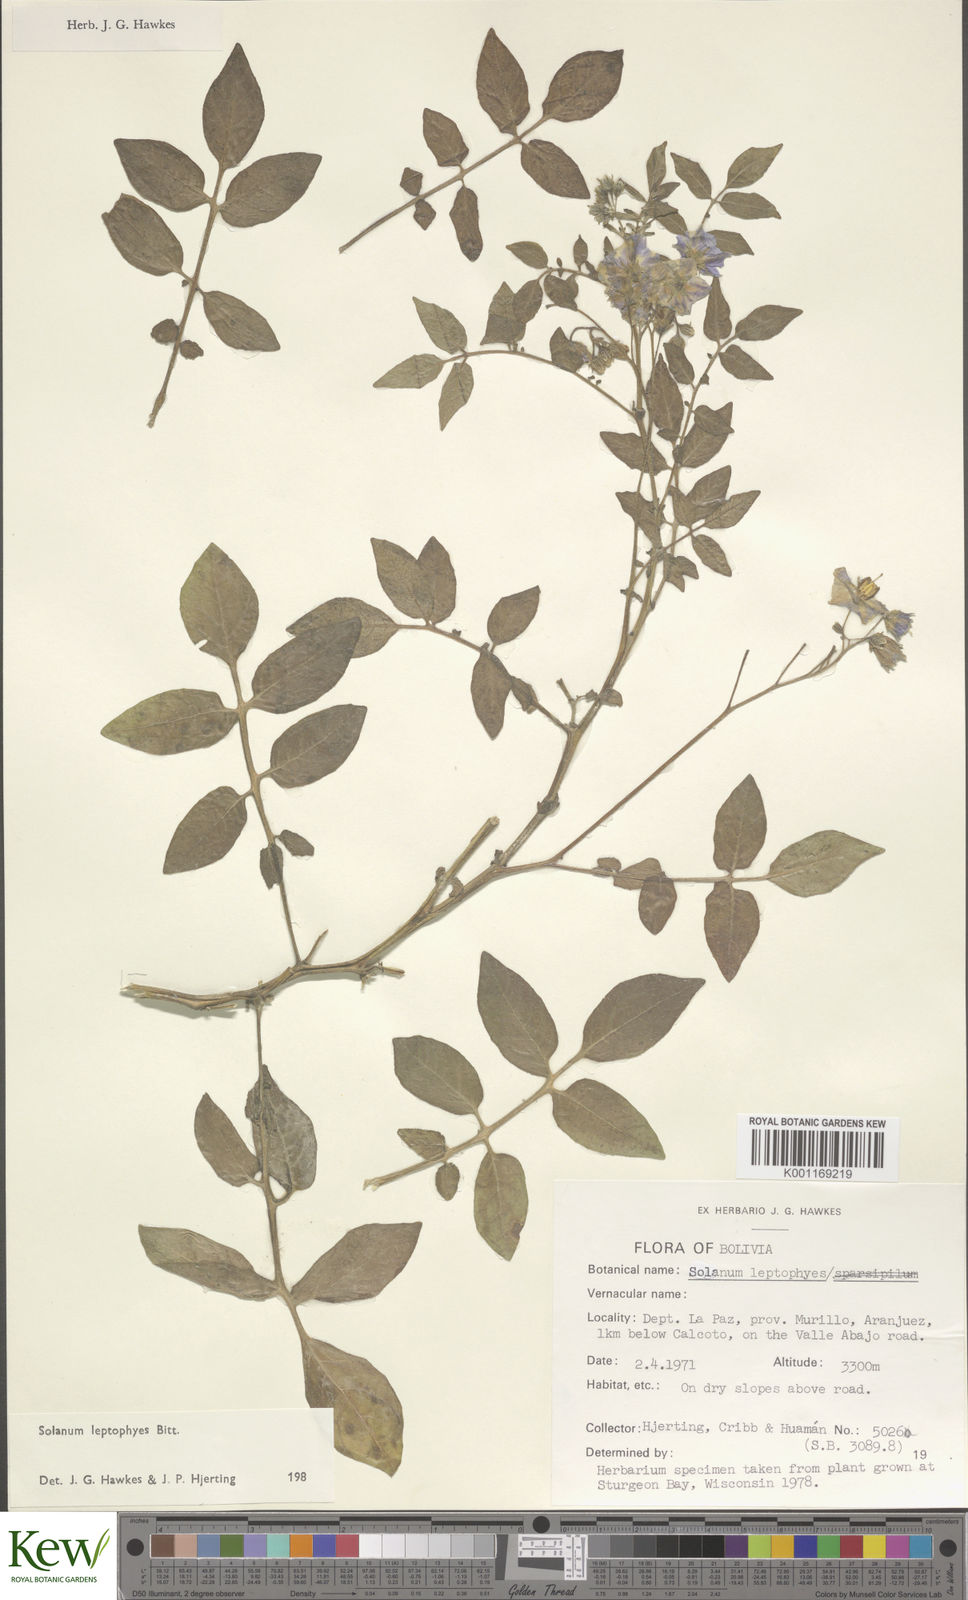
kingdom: Plantae
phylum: Tracheophyta
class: Magnoliopsida
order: Solanales
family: Solanaceae
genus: Solanum
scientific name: Solanum brevicaule
